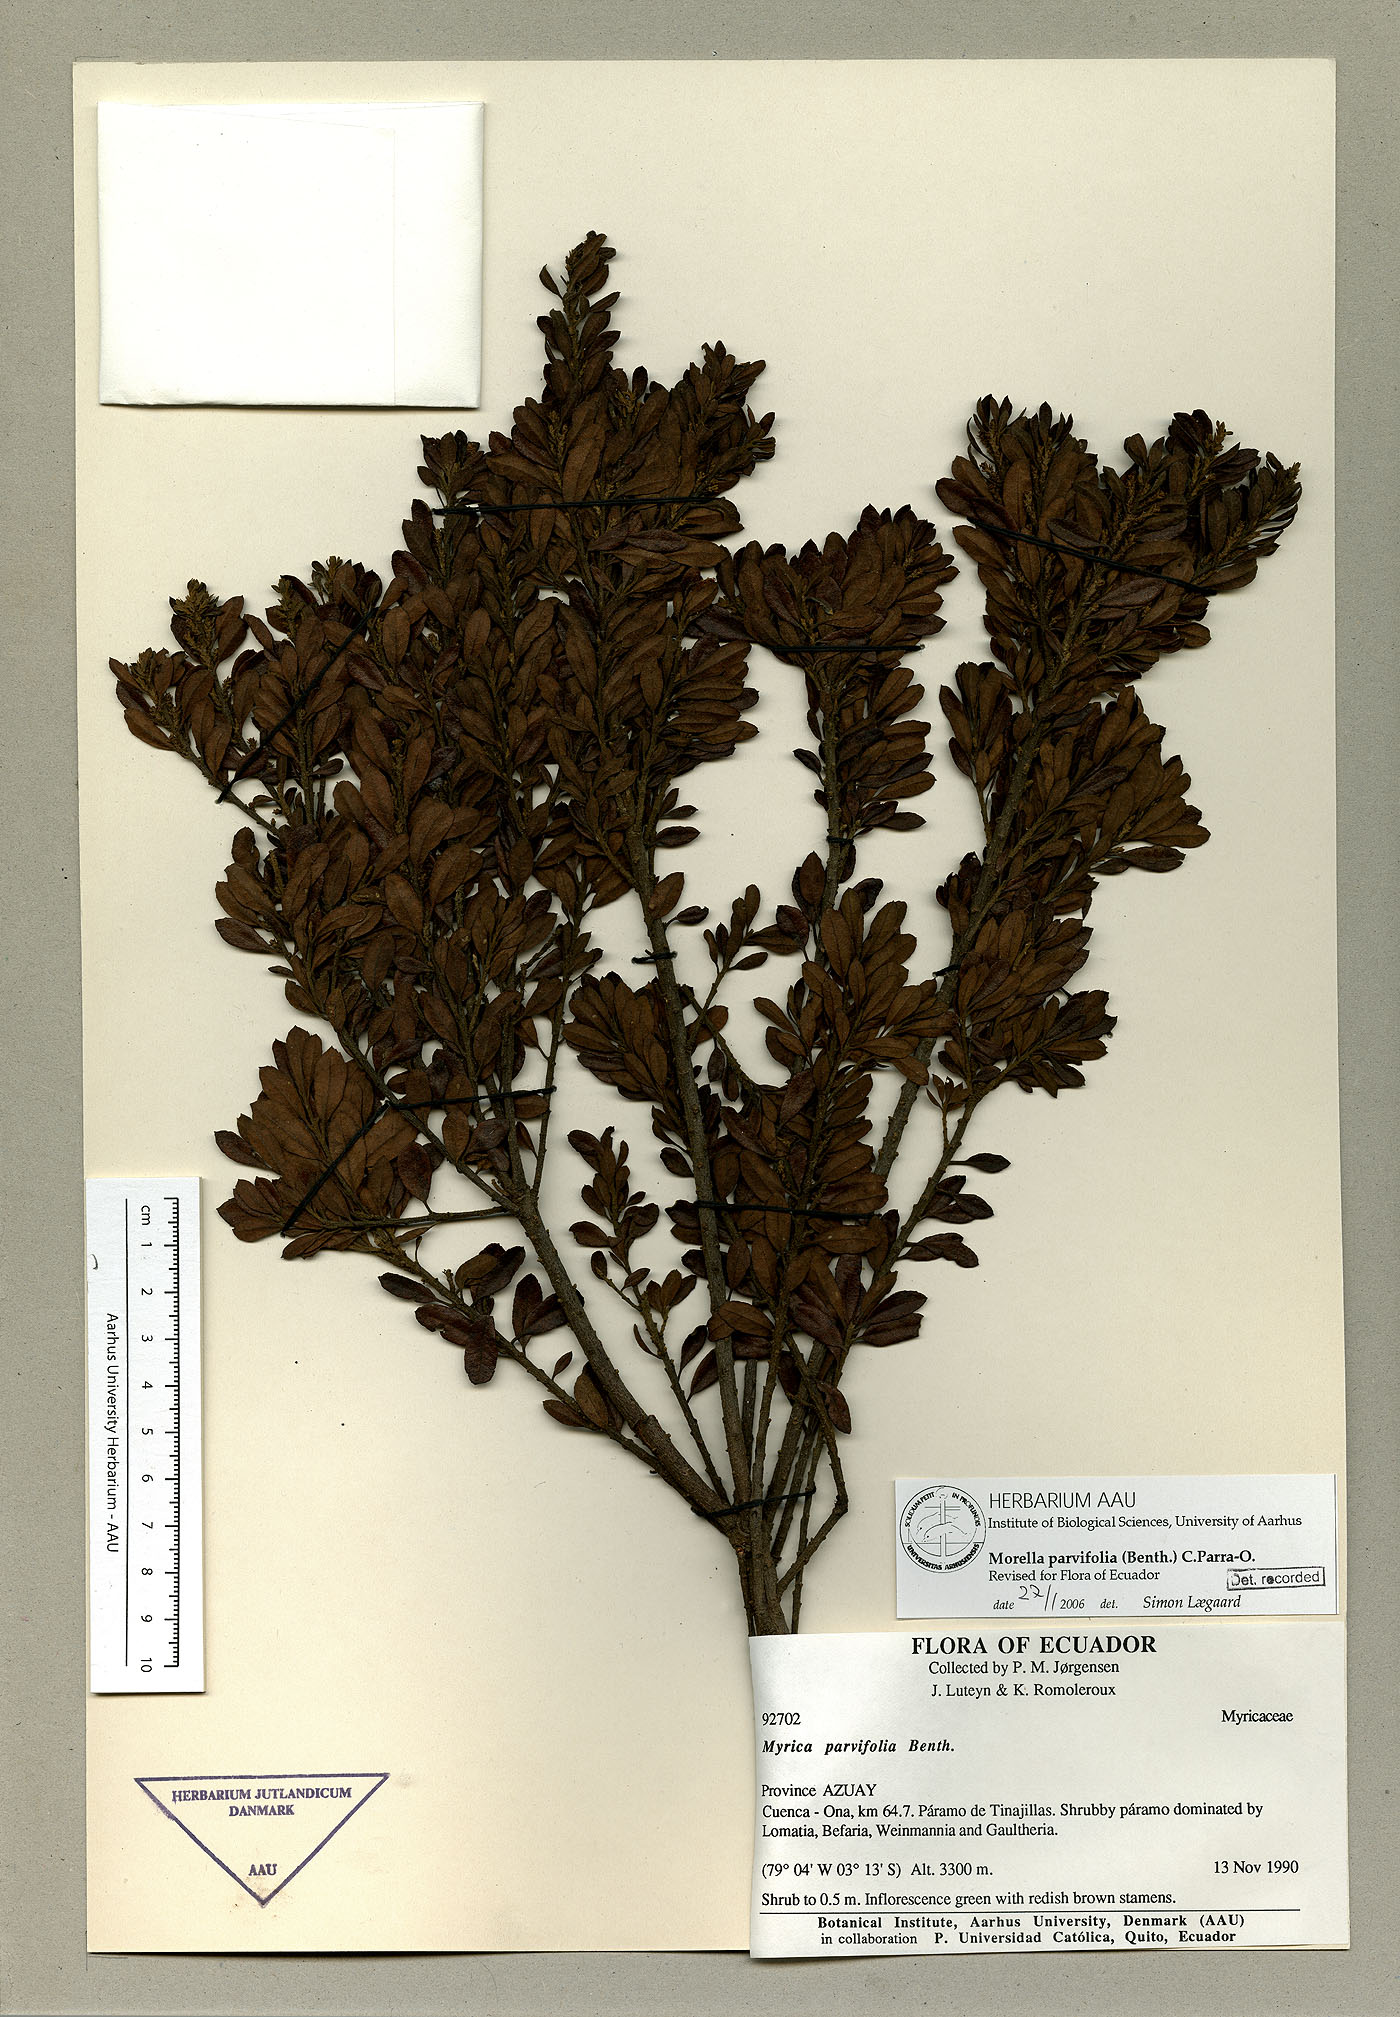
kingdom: Plantae
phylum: Tracheophyta
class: Magnoliopsida
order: Fagales
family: Myricaceae
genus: Morella
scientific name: Morella parvifolia
